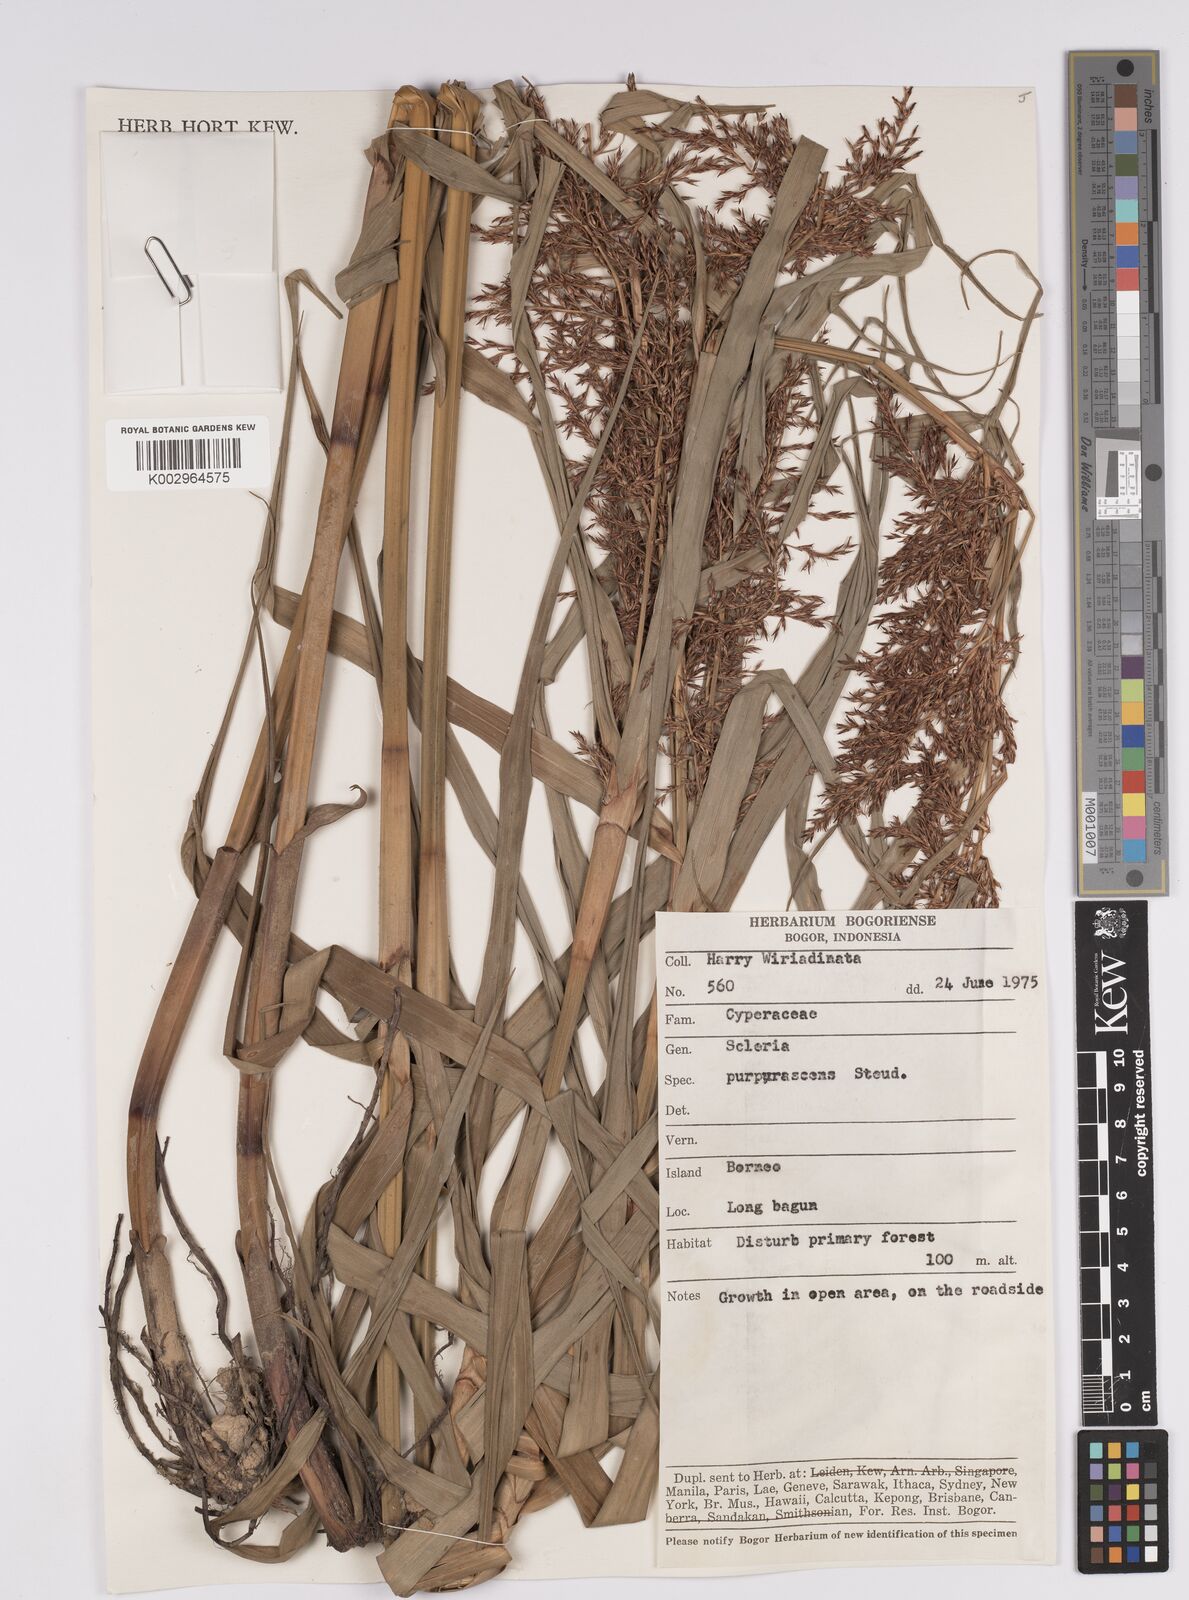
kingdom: Plantae
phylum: Tracheophyta
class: Liliopsida
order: Poales
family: Cyperaceae
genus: Scleria
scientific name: Scleria purpurascens
